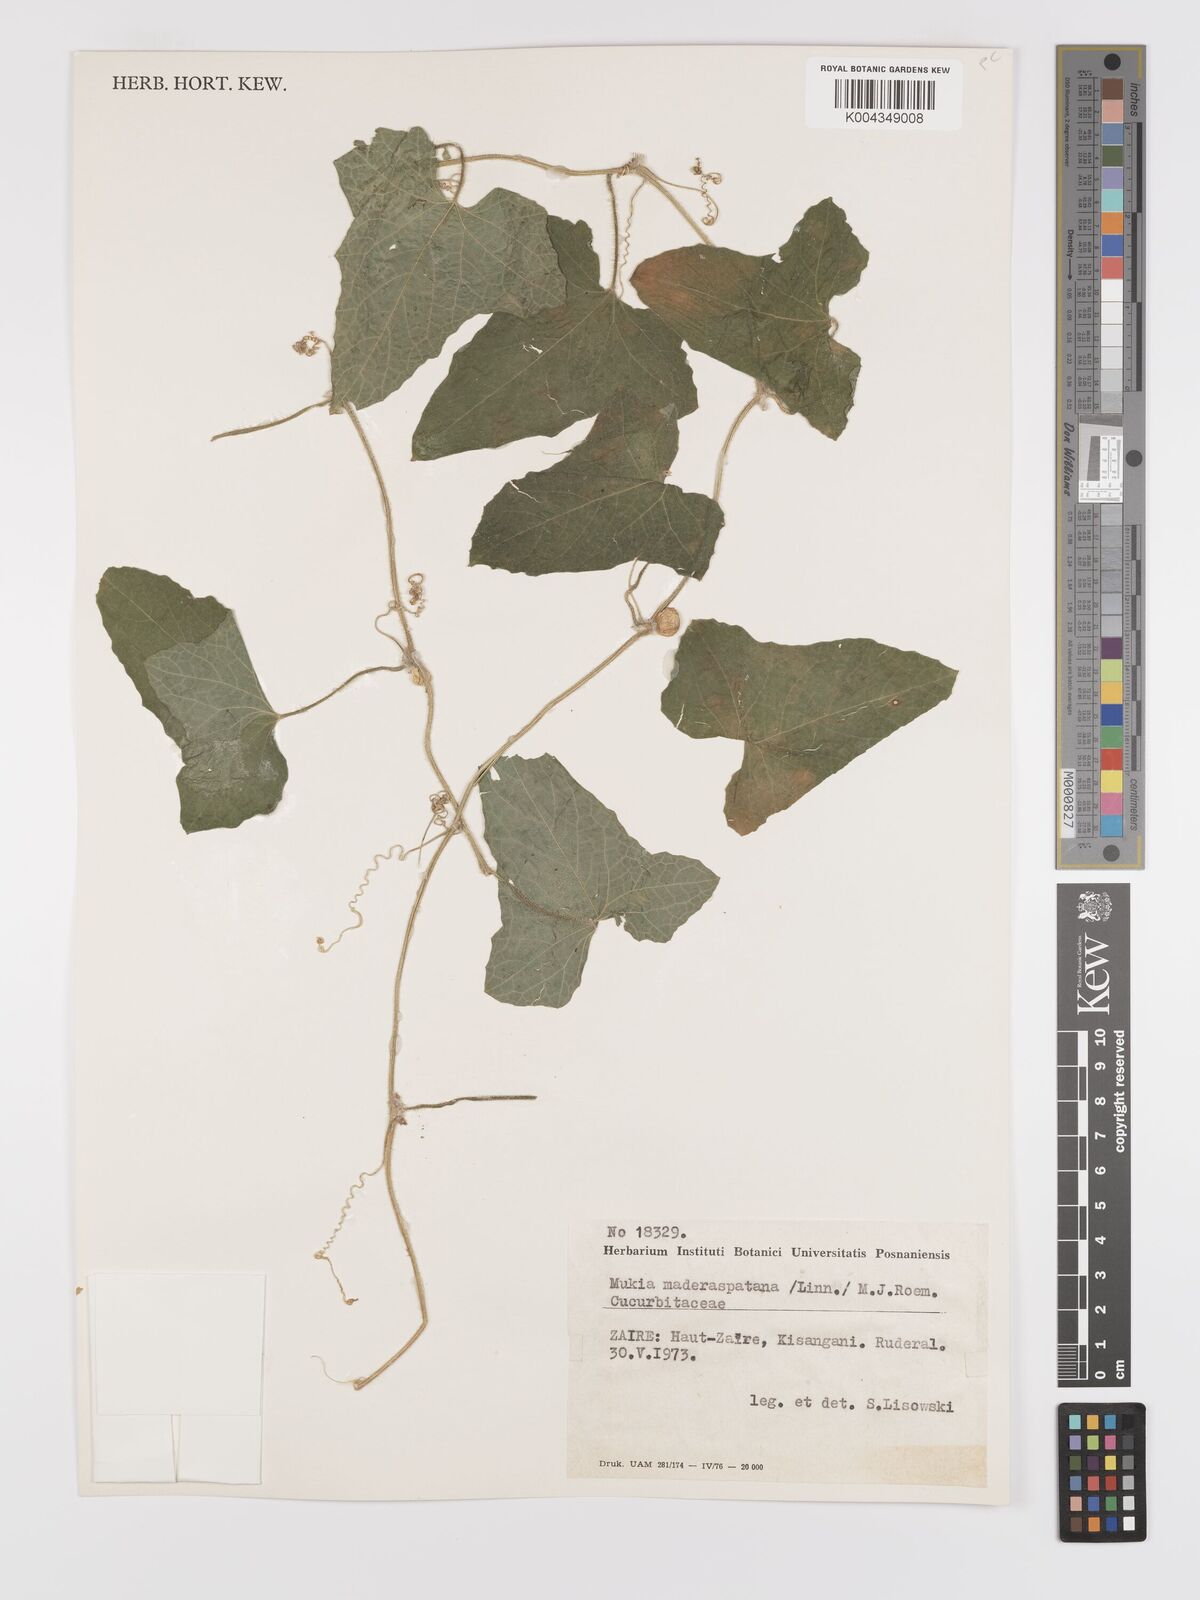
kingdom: Plantae
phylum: Tracheophyta
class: Magnoliopsida
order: Cucurbitales
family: Cucurbitaceae
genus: Cucumis
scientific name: Cucumis maderaspatanus
